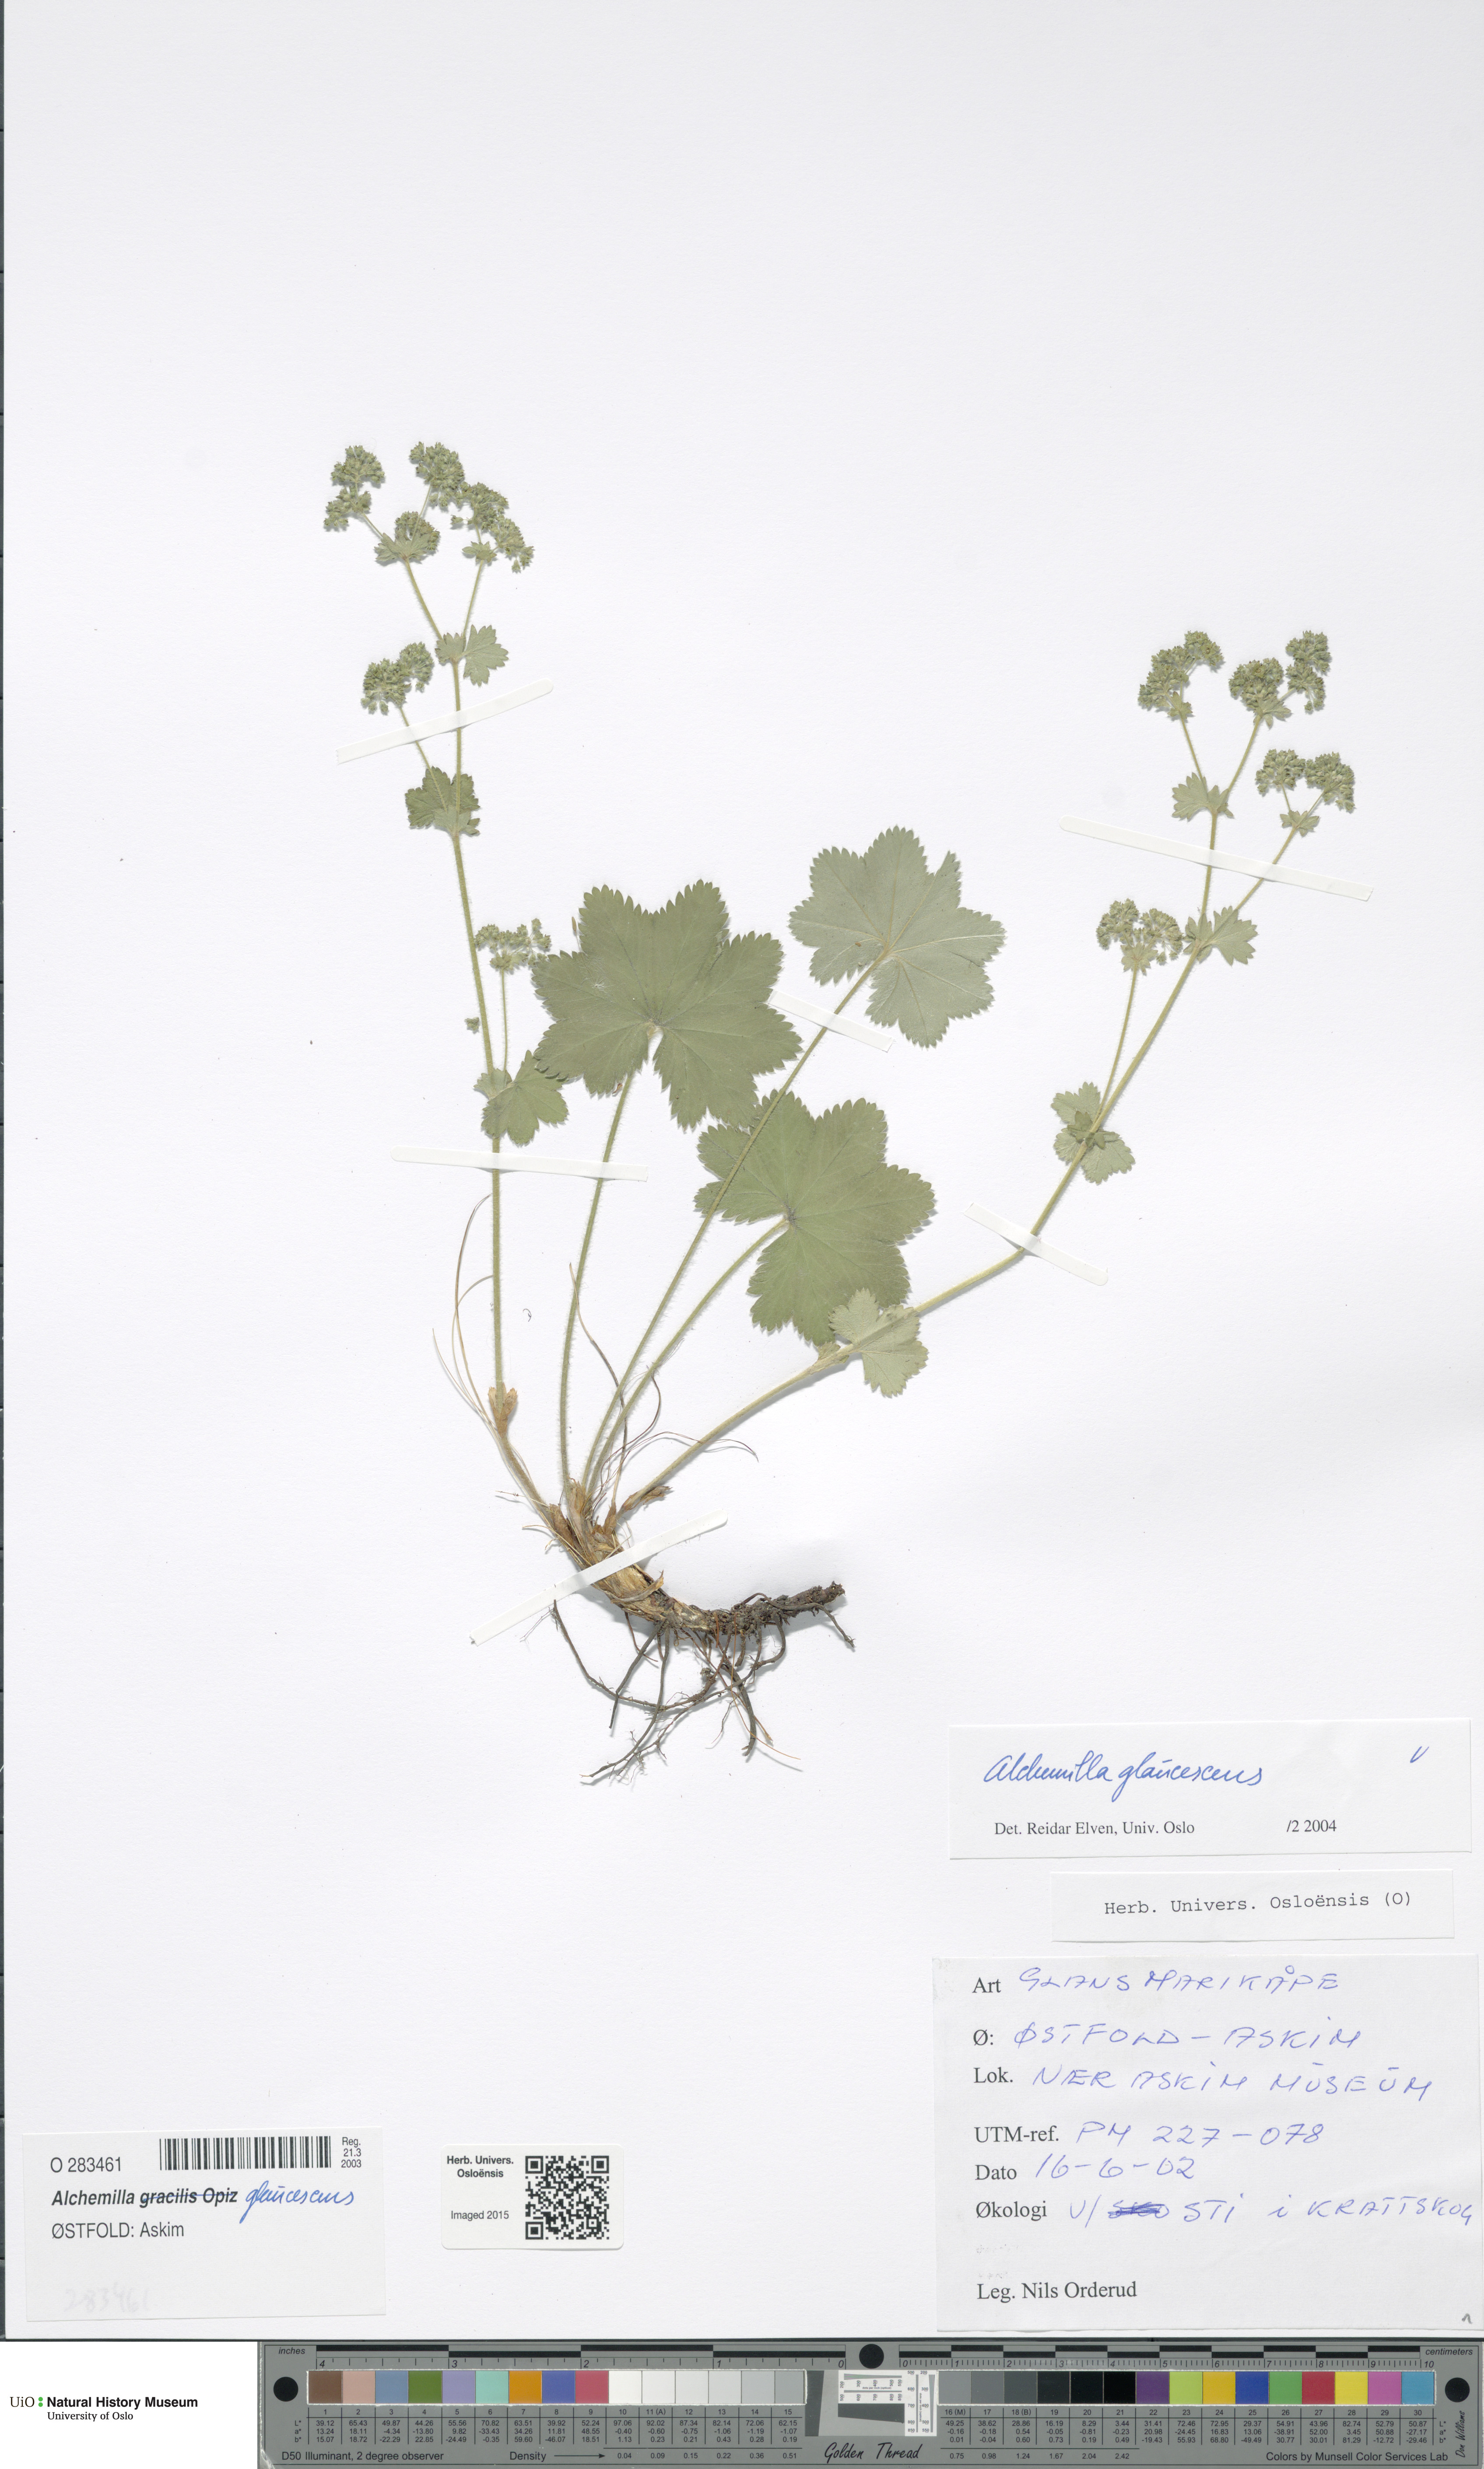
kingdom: Plantae
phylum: Tracheophyta
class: Magnoliopsida
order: Rosales
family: Rosaceae
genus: Alchemilla
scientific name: Alchemilla glaucescens
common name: Silky lady's mantle
